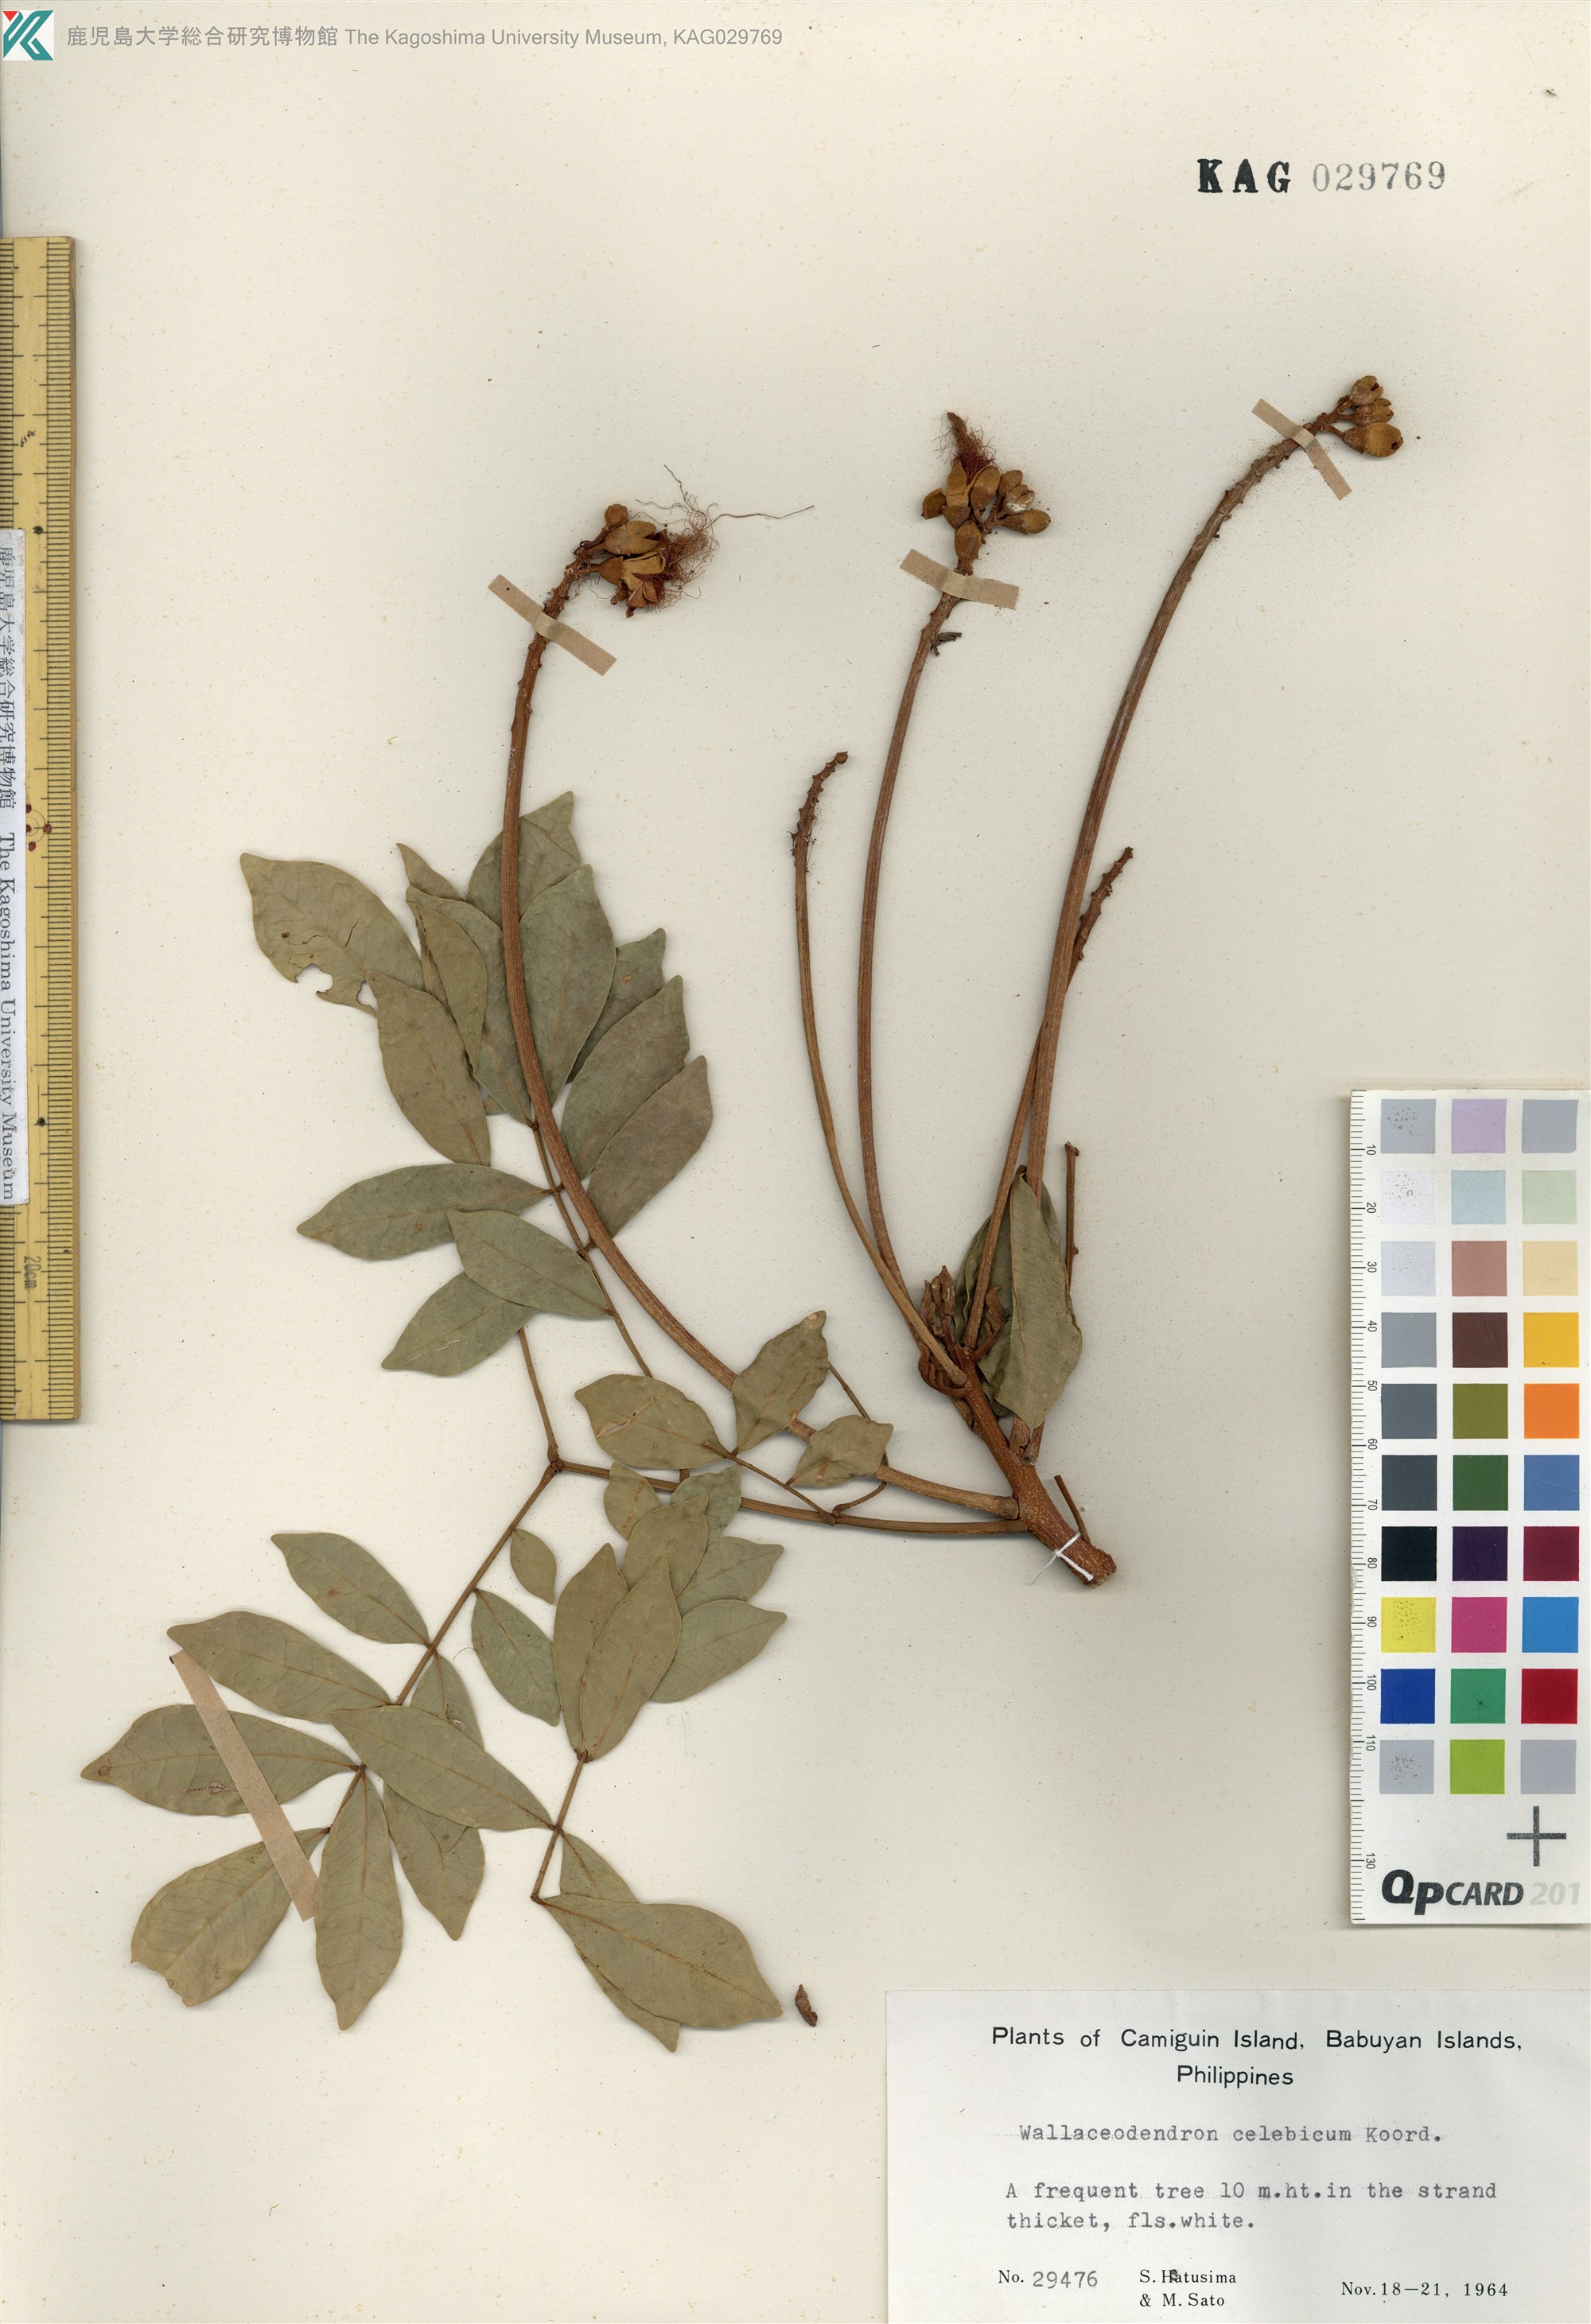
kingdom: Plantae
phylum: Tracheophyta
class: Magnoliopsida
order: Fabales
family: Fabaceae
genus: Wallaceodendron
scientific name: Wallaceodendron celebicum
